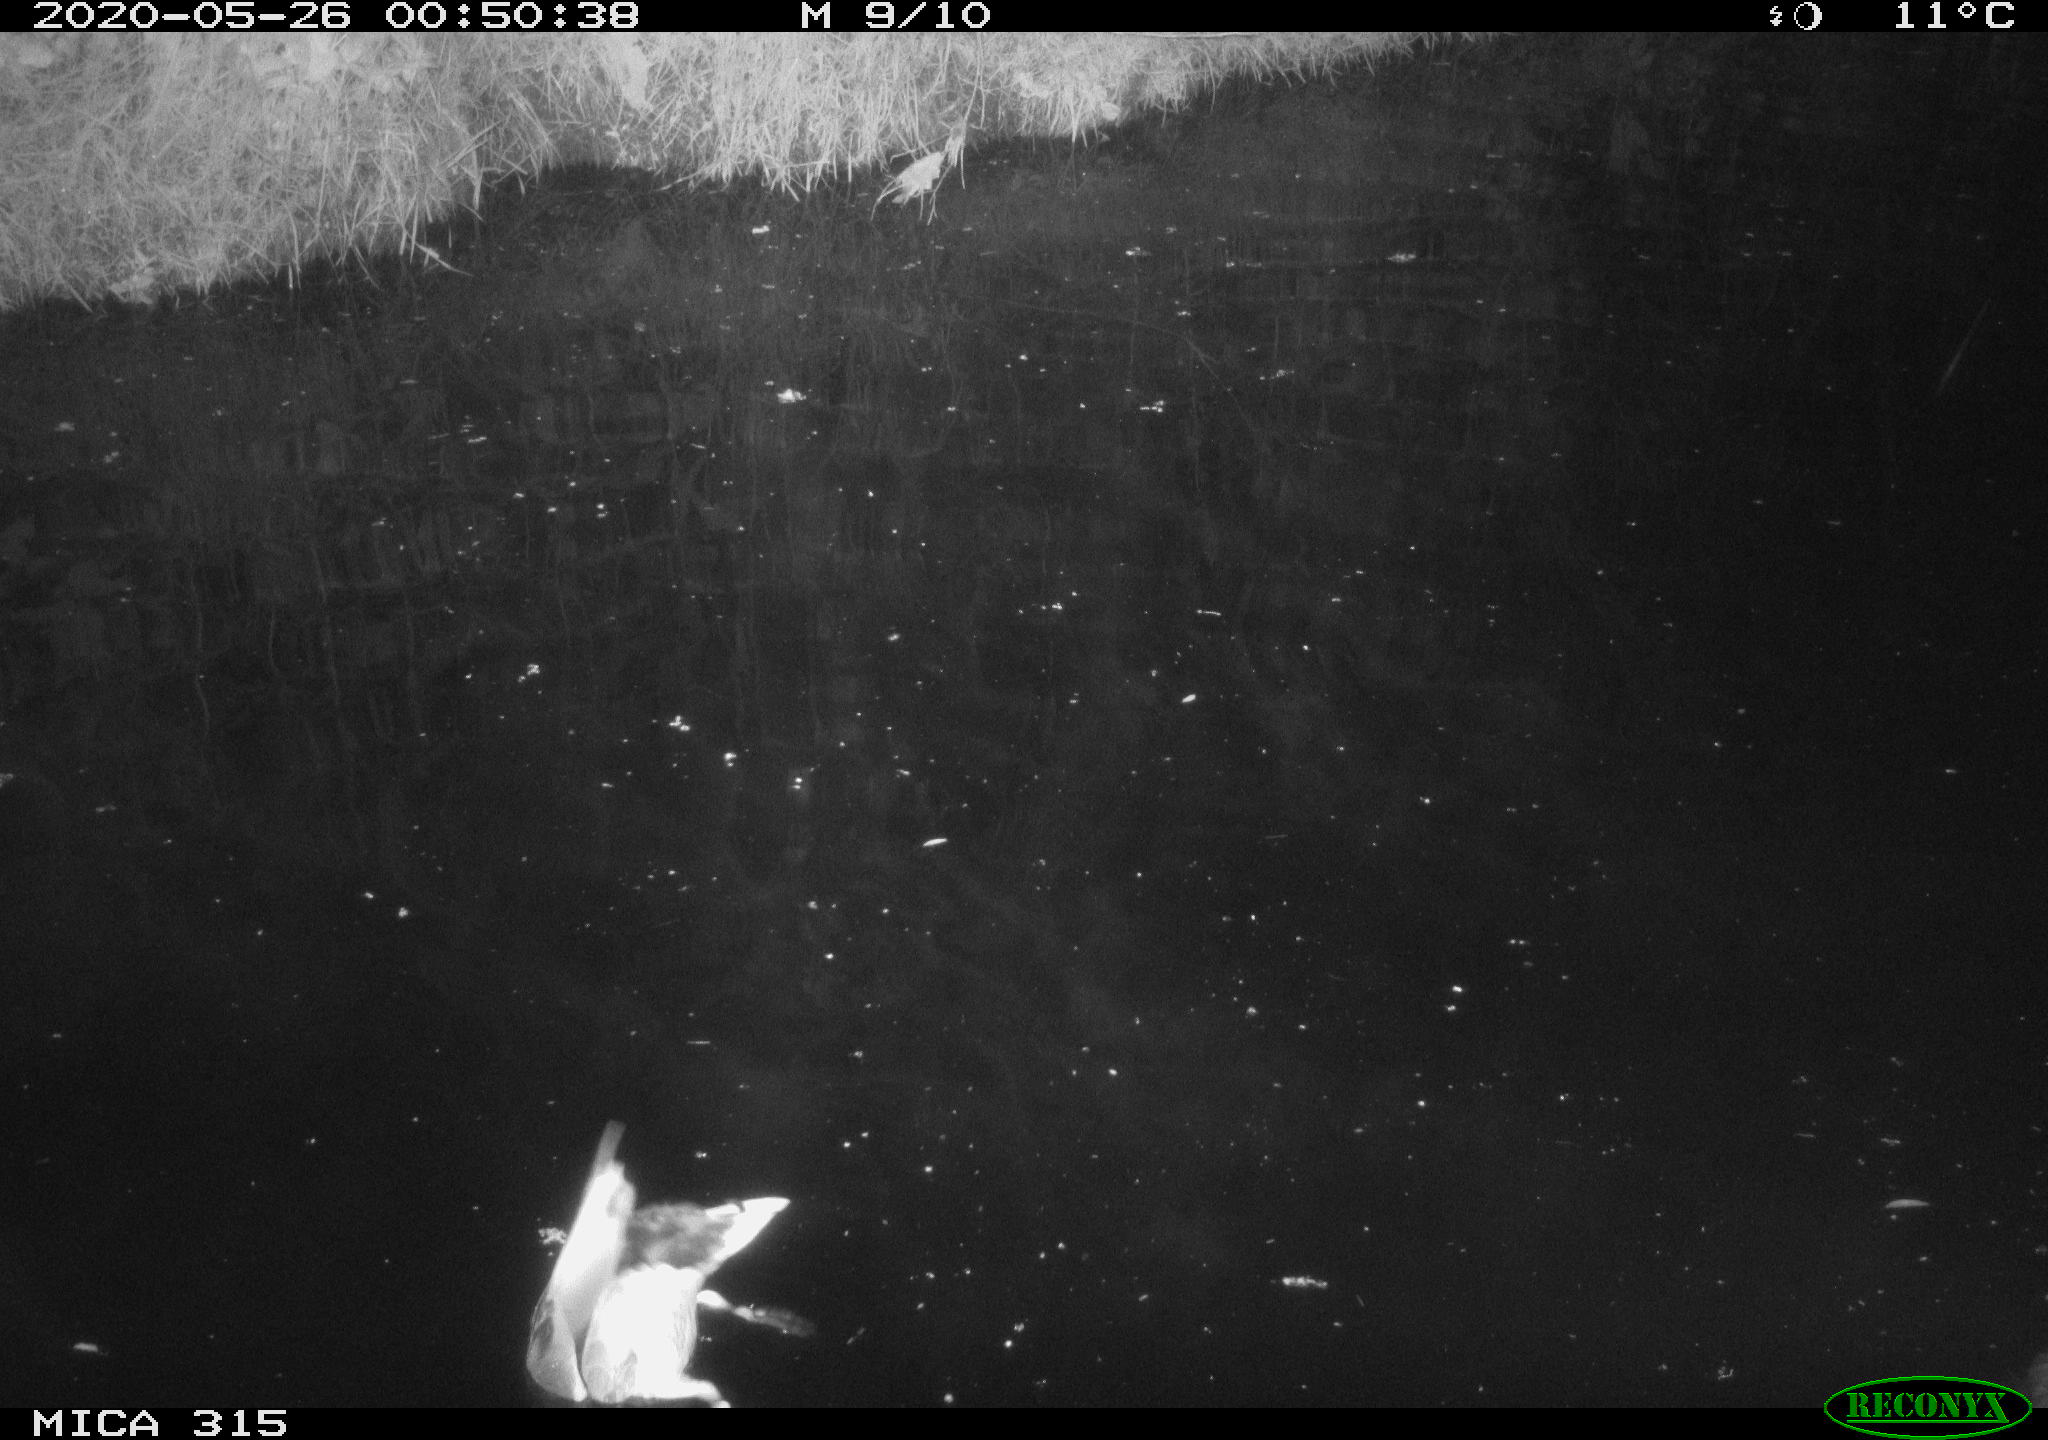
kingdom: Animalia
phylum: Chordata
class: Aves
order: Anseriformes
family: Anatidae
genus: Anas
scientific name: Anas platyrhynchos
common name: Mallard
